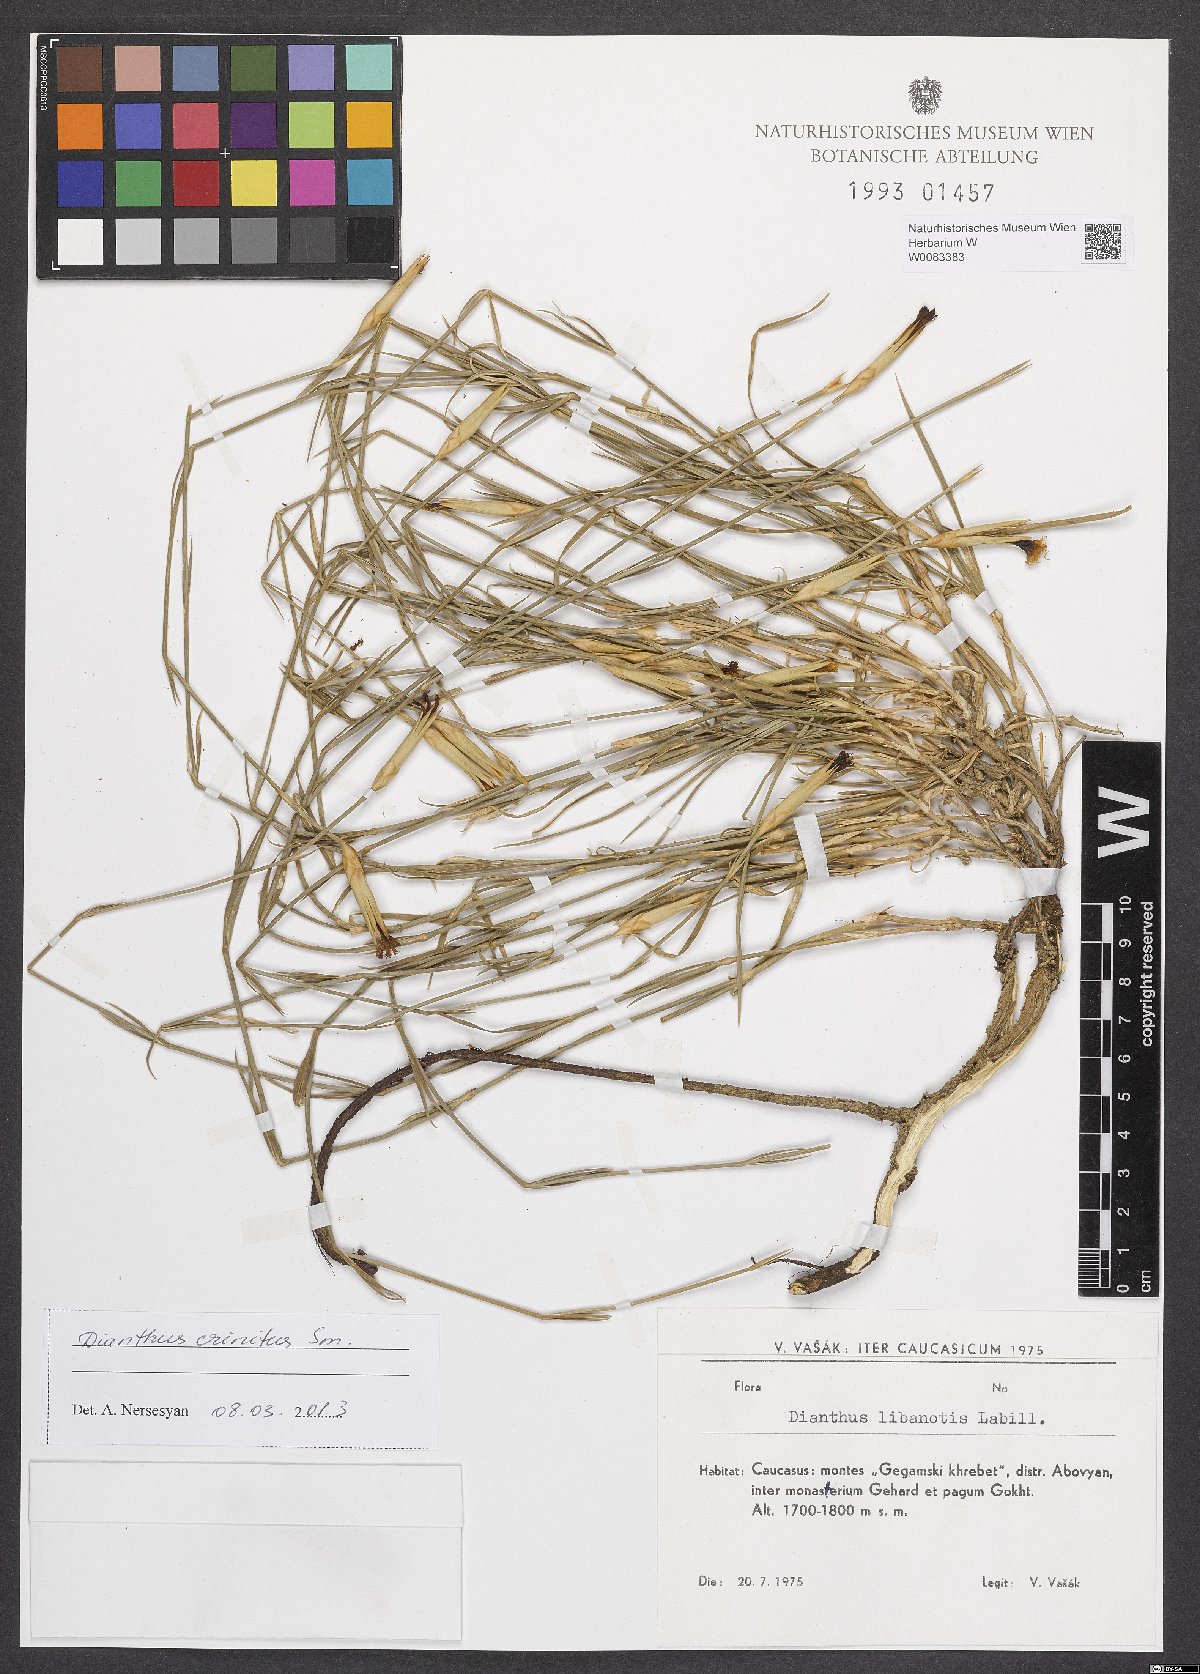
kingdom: Plantae
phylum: Tracheophyta
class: Magnoliopsida
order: Caryophyllales
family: Caryophyllaceae
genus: Dianthus
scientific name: Dianthus crinitus
